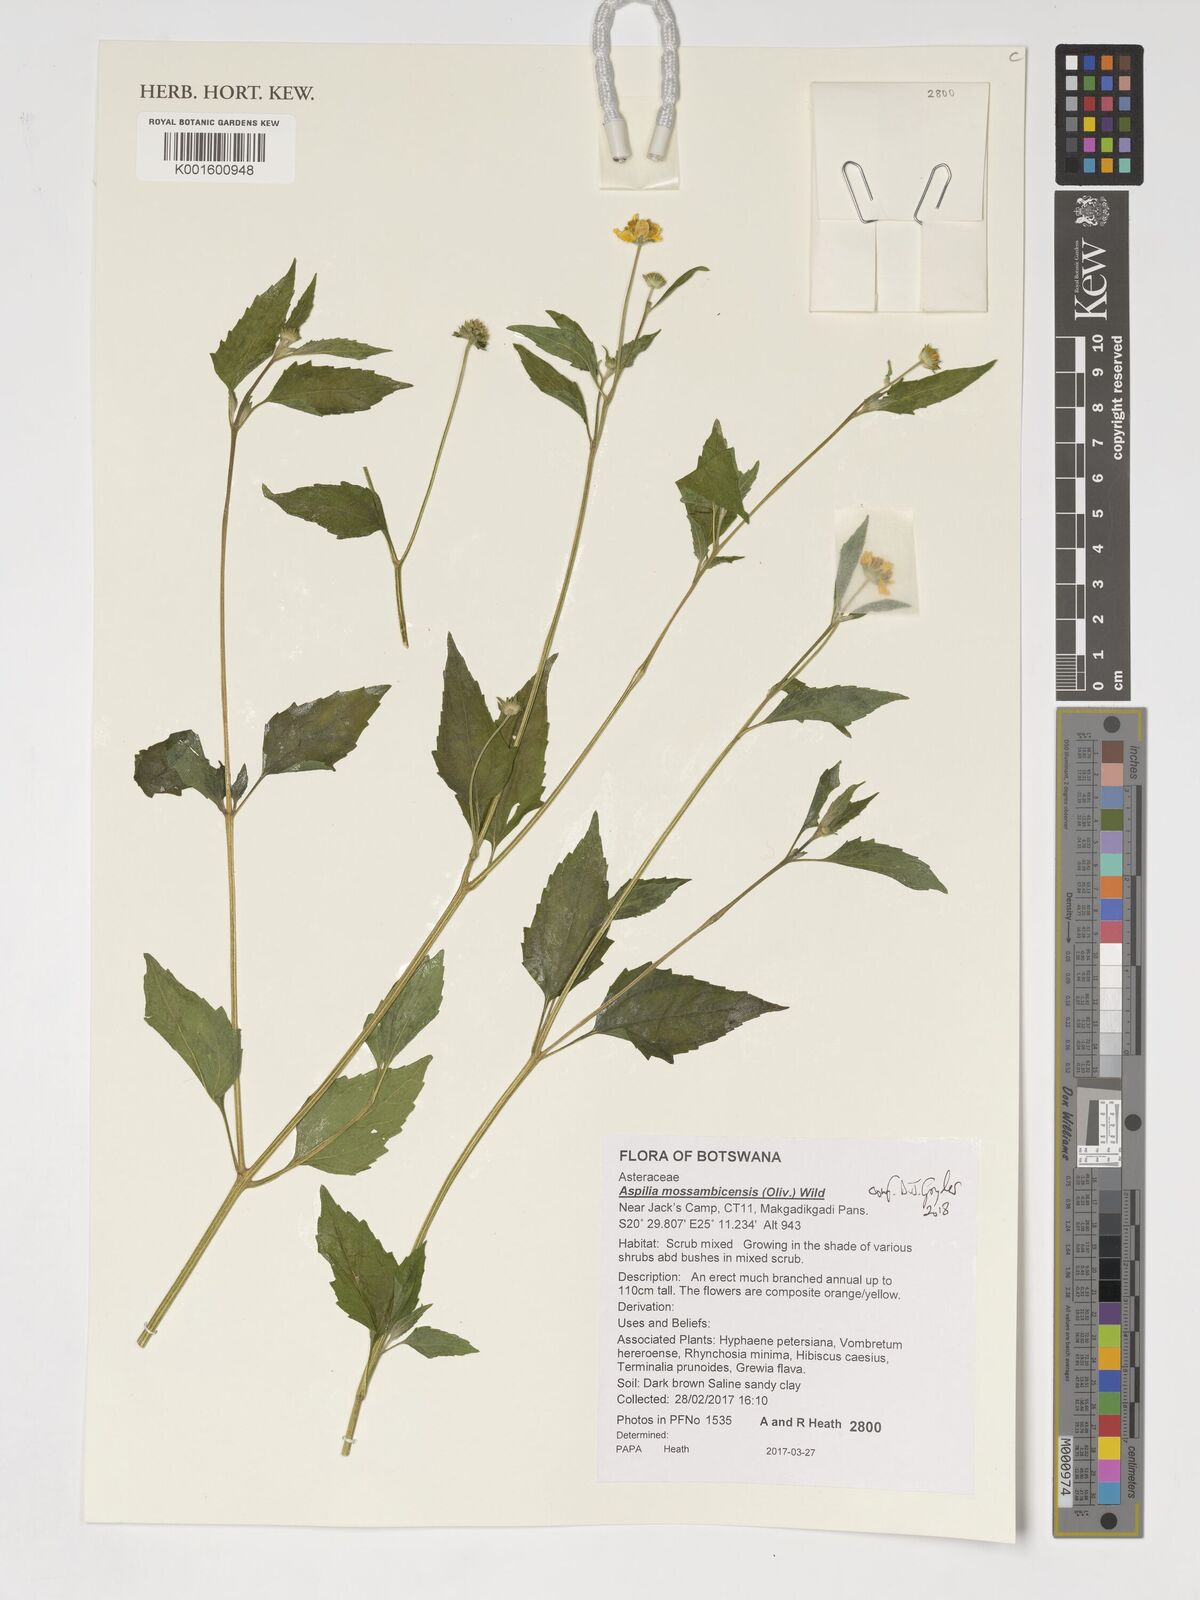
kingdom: Plantae
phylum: Tracheophyta
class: Magnoliopsida
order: Asterales
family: Asteraceae
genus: Aspilia
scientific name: Aspilia mossambicensis
